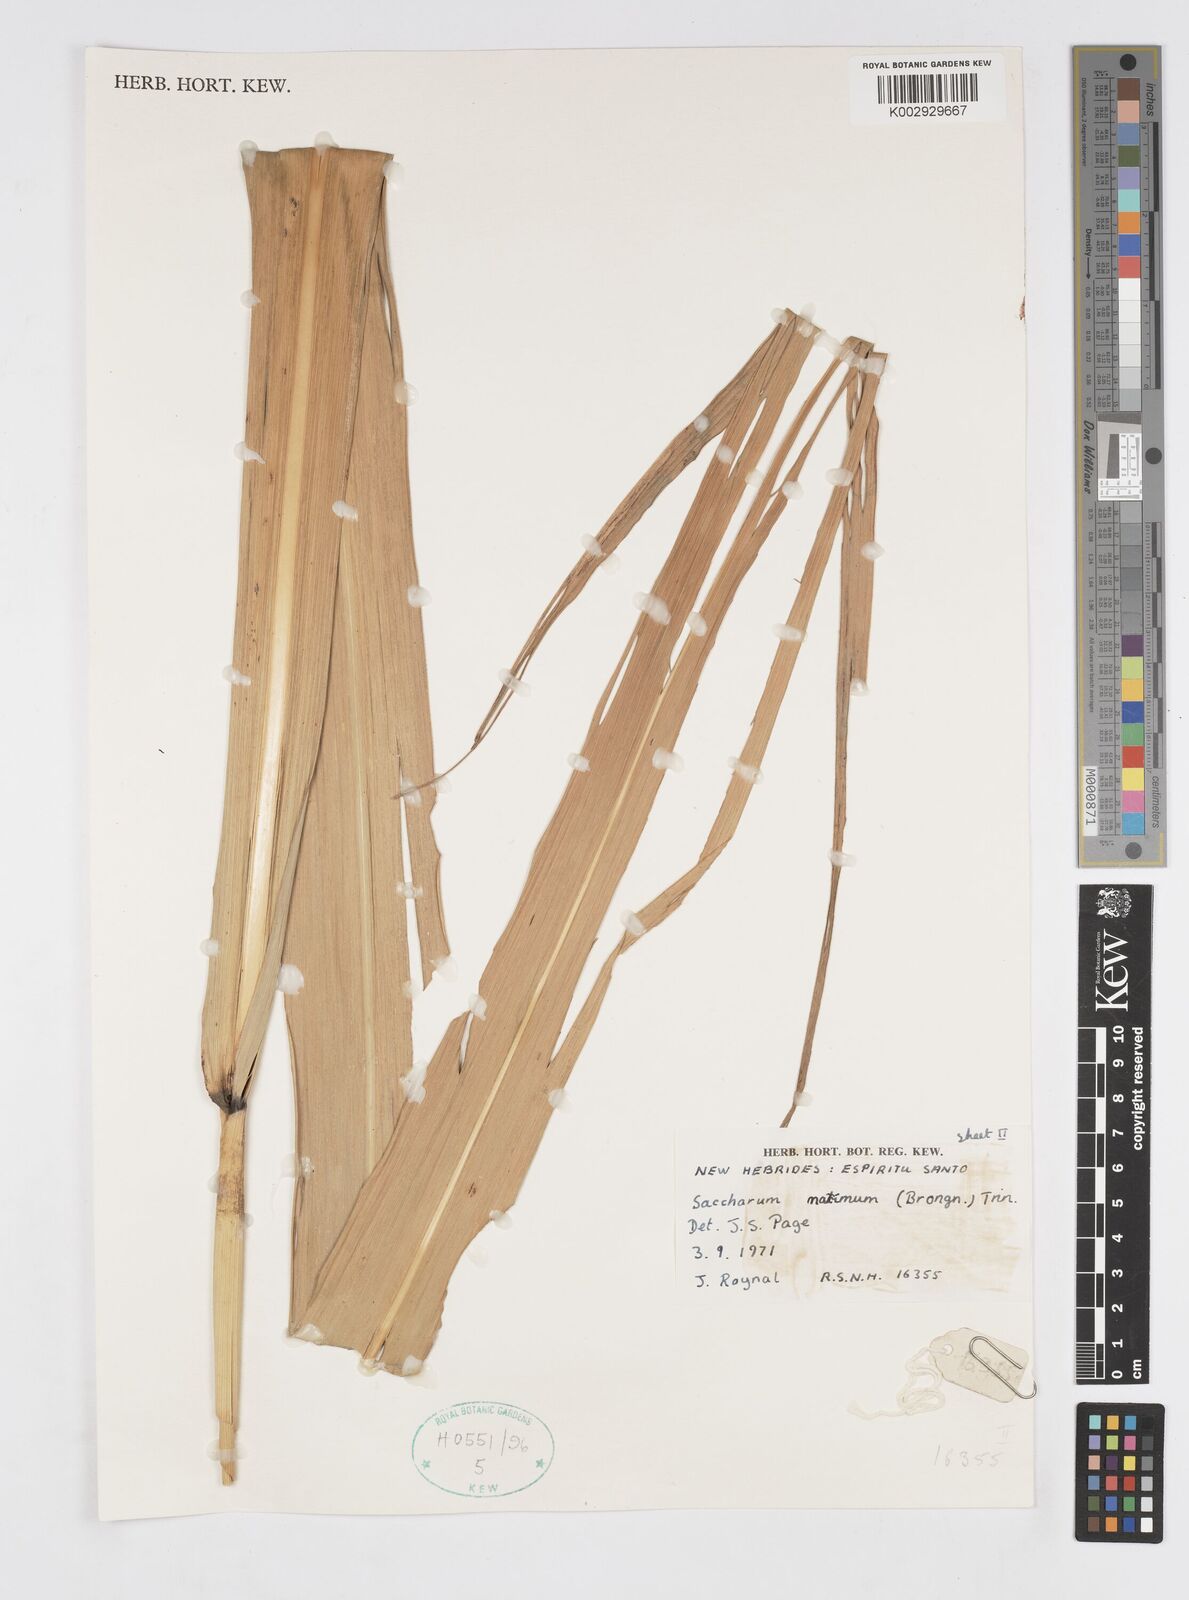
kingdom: Plantae
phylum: Tracheophyta
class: Liliopsida
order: Poales
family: Poaceae
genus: Saccharum
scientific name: Saccharum maximum
